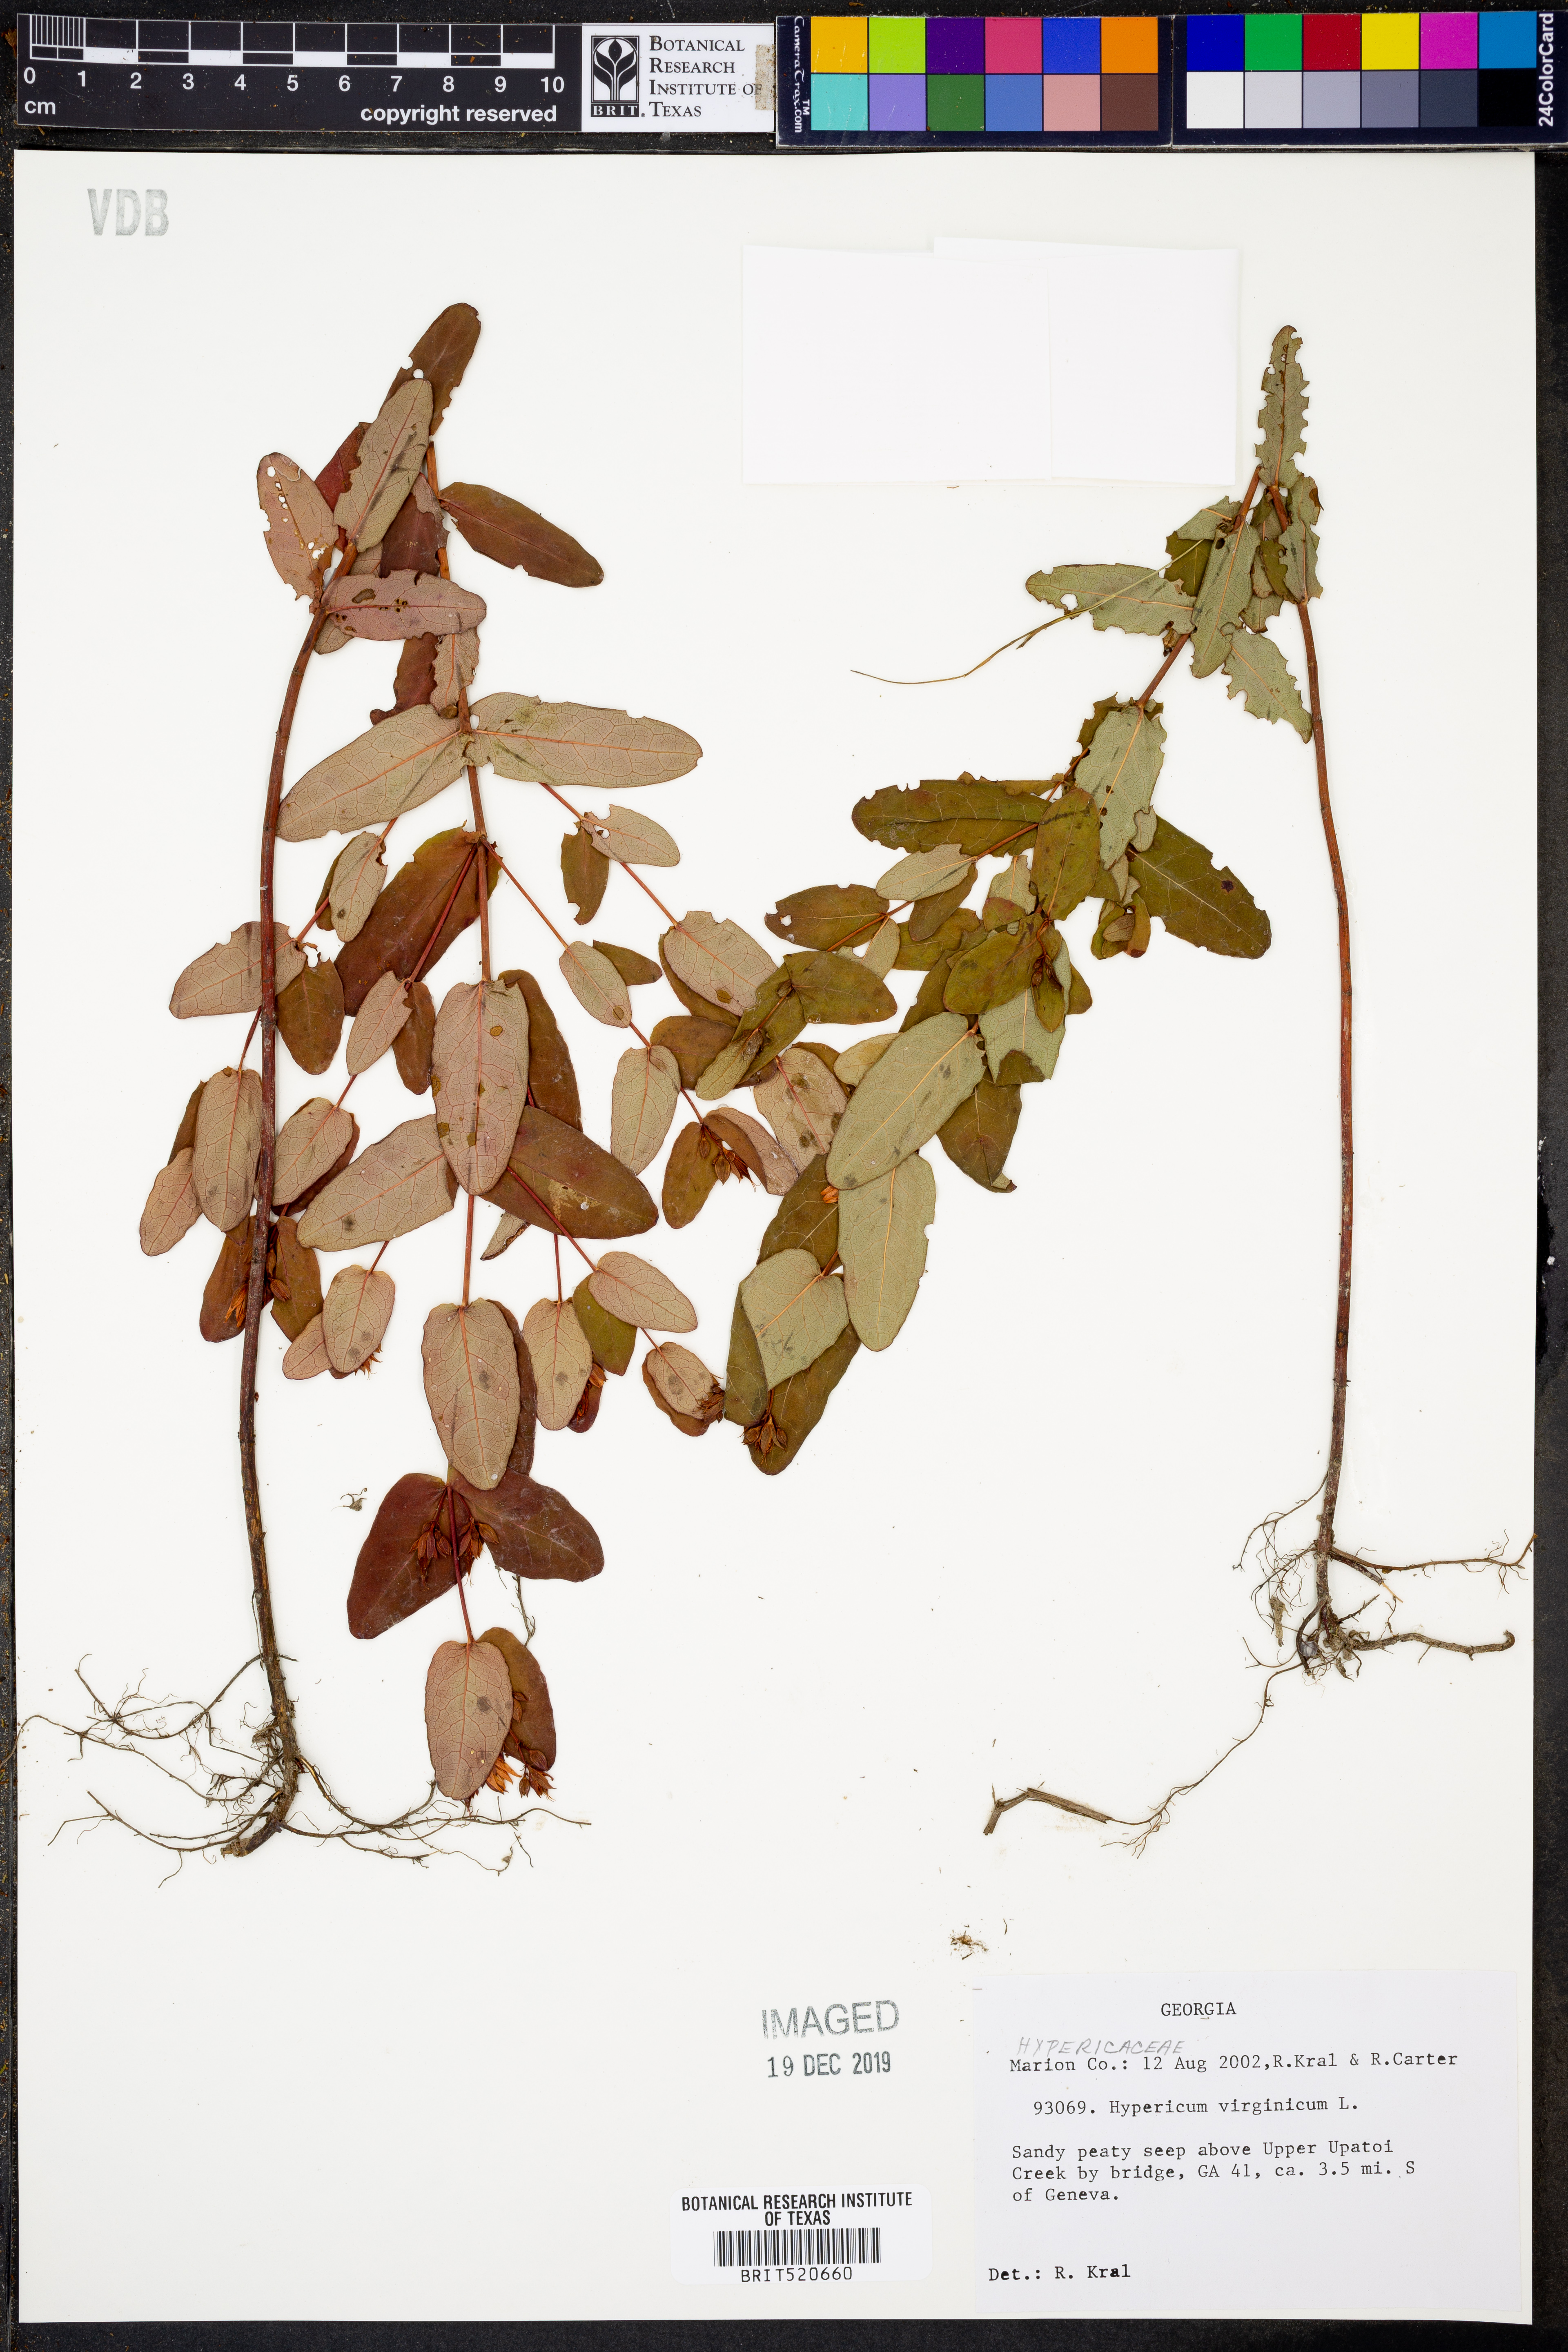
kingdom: Plantae
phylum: Tracheophyta
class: Magnoliopsida
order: Malpighiales
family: Hypericaceae
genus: Triadenum
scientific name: Triadenum virginicum
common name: Marsh st. john's-wort
